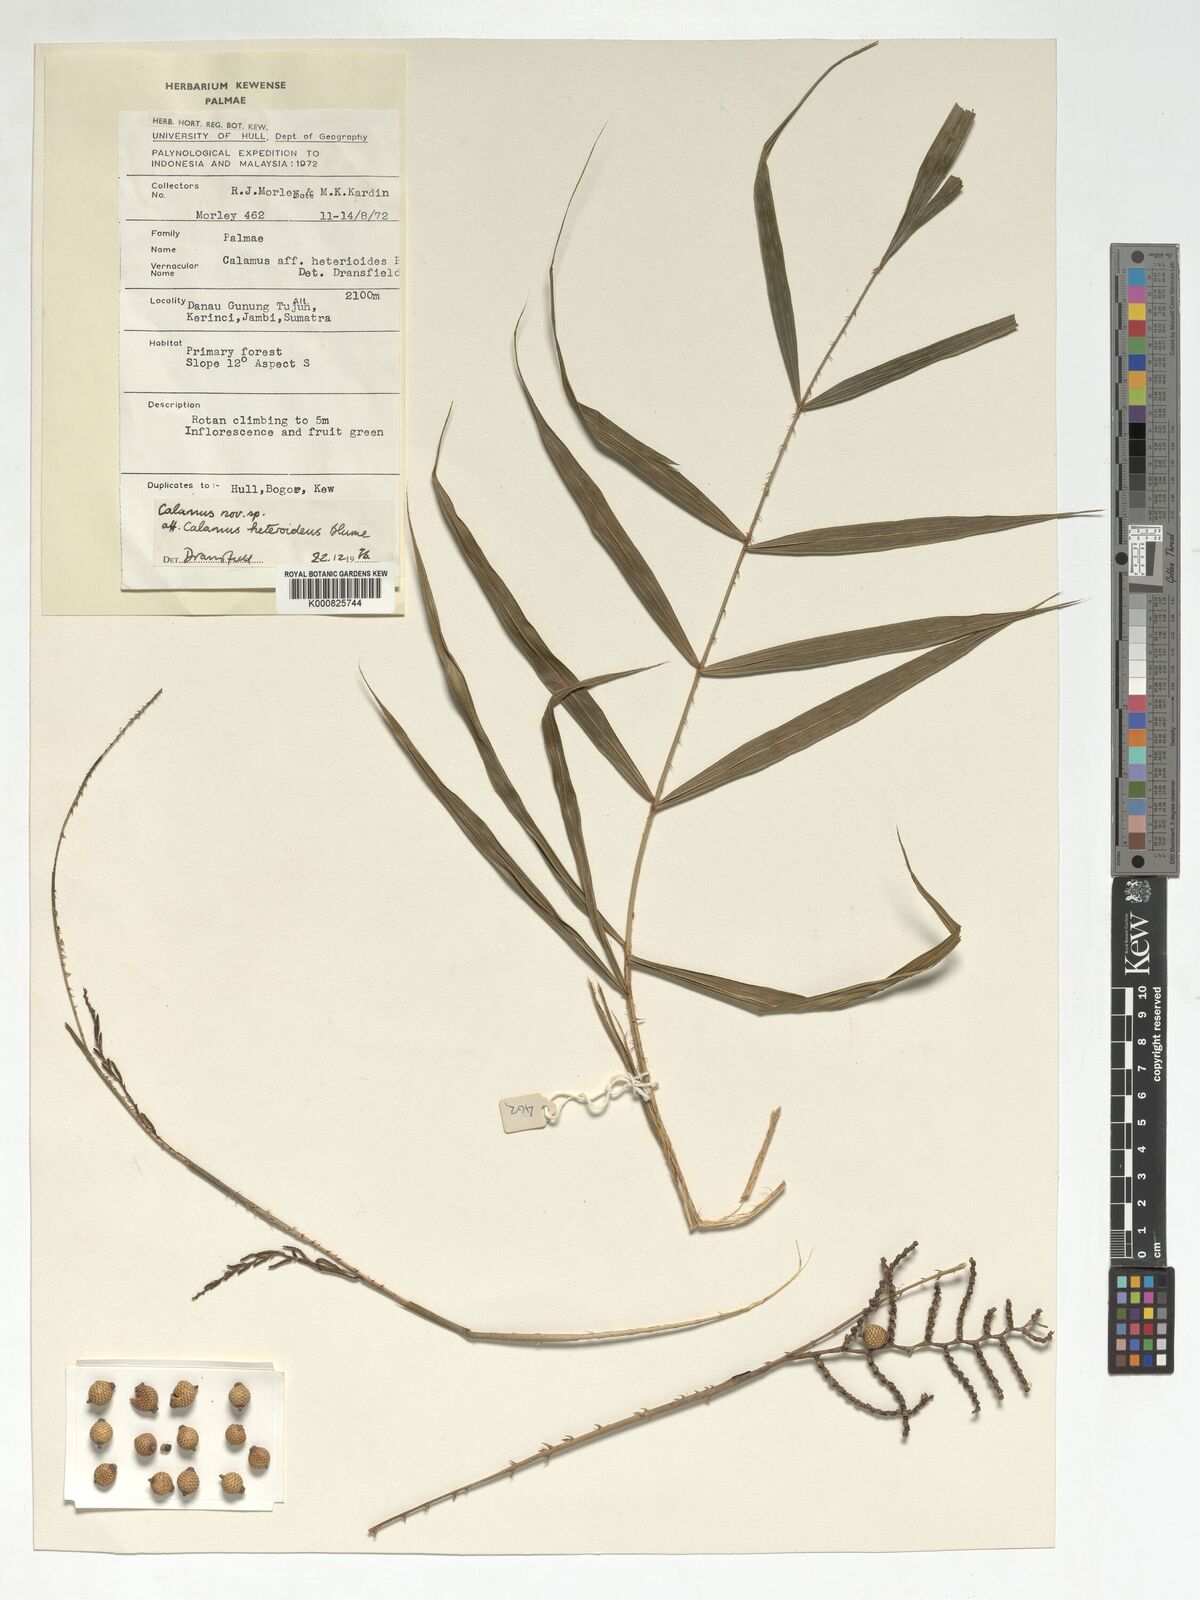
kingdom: Plantae
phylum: Tracheophyta
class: Liliopsida
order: Arecales
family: Arecaceae
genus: Calamus
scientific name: Calamus
